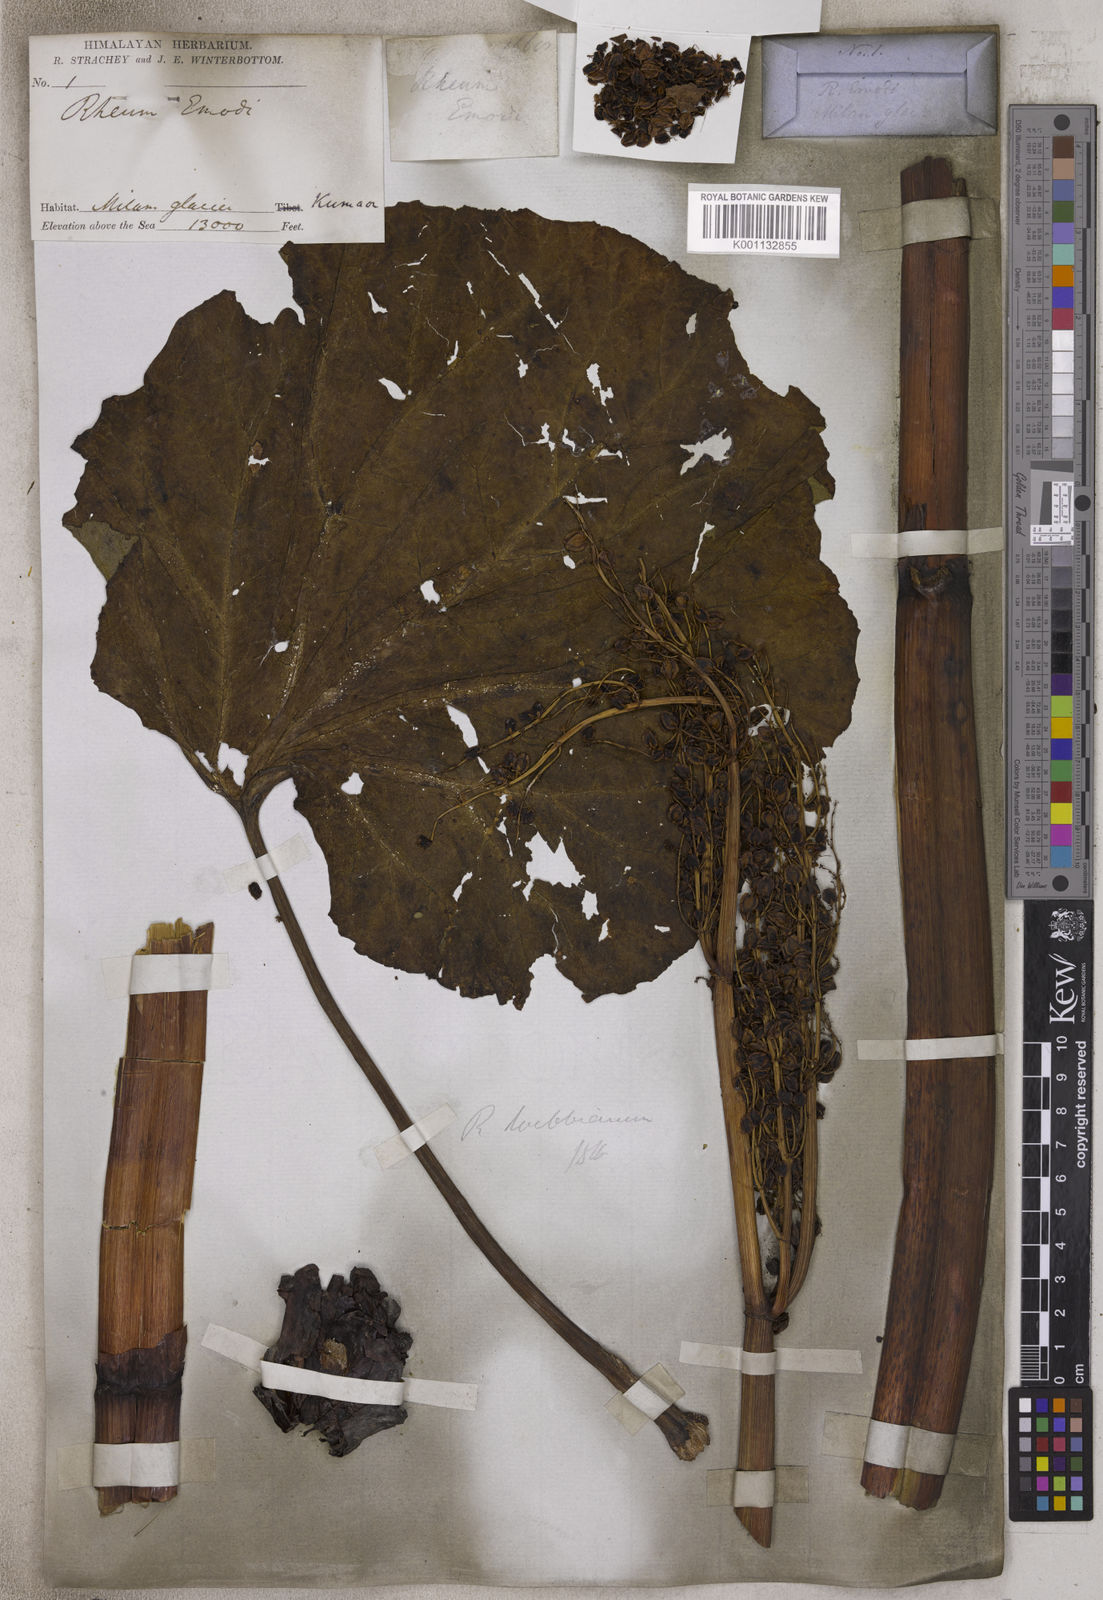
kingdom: Plantae
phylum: Tracheophyta
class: Magnoliopsida
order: Caryophyllales
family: Polygonaceae
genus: Rheum
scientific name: Rheum
